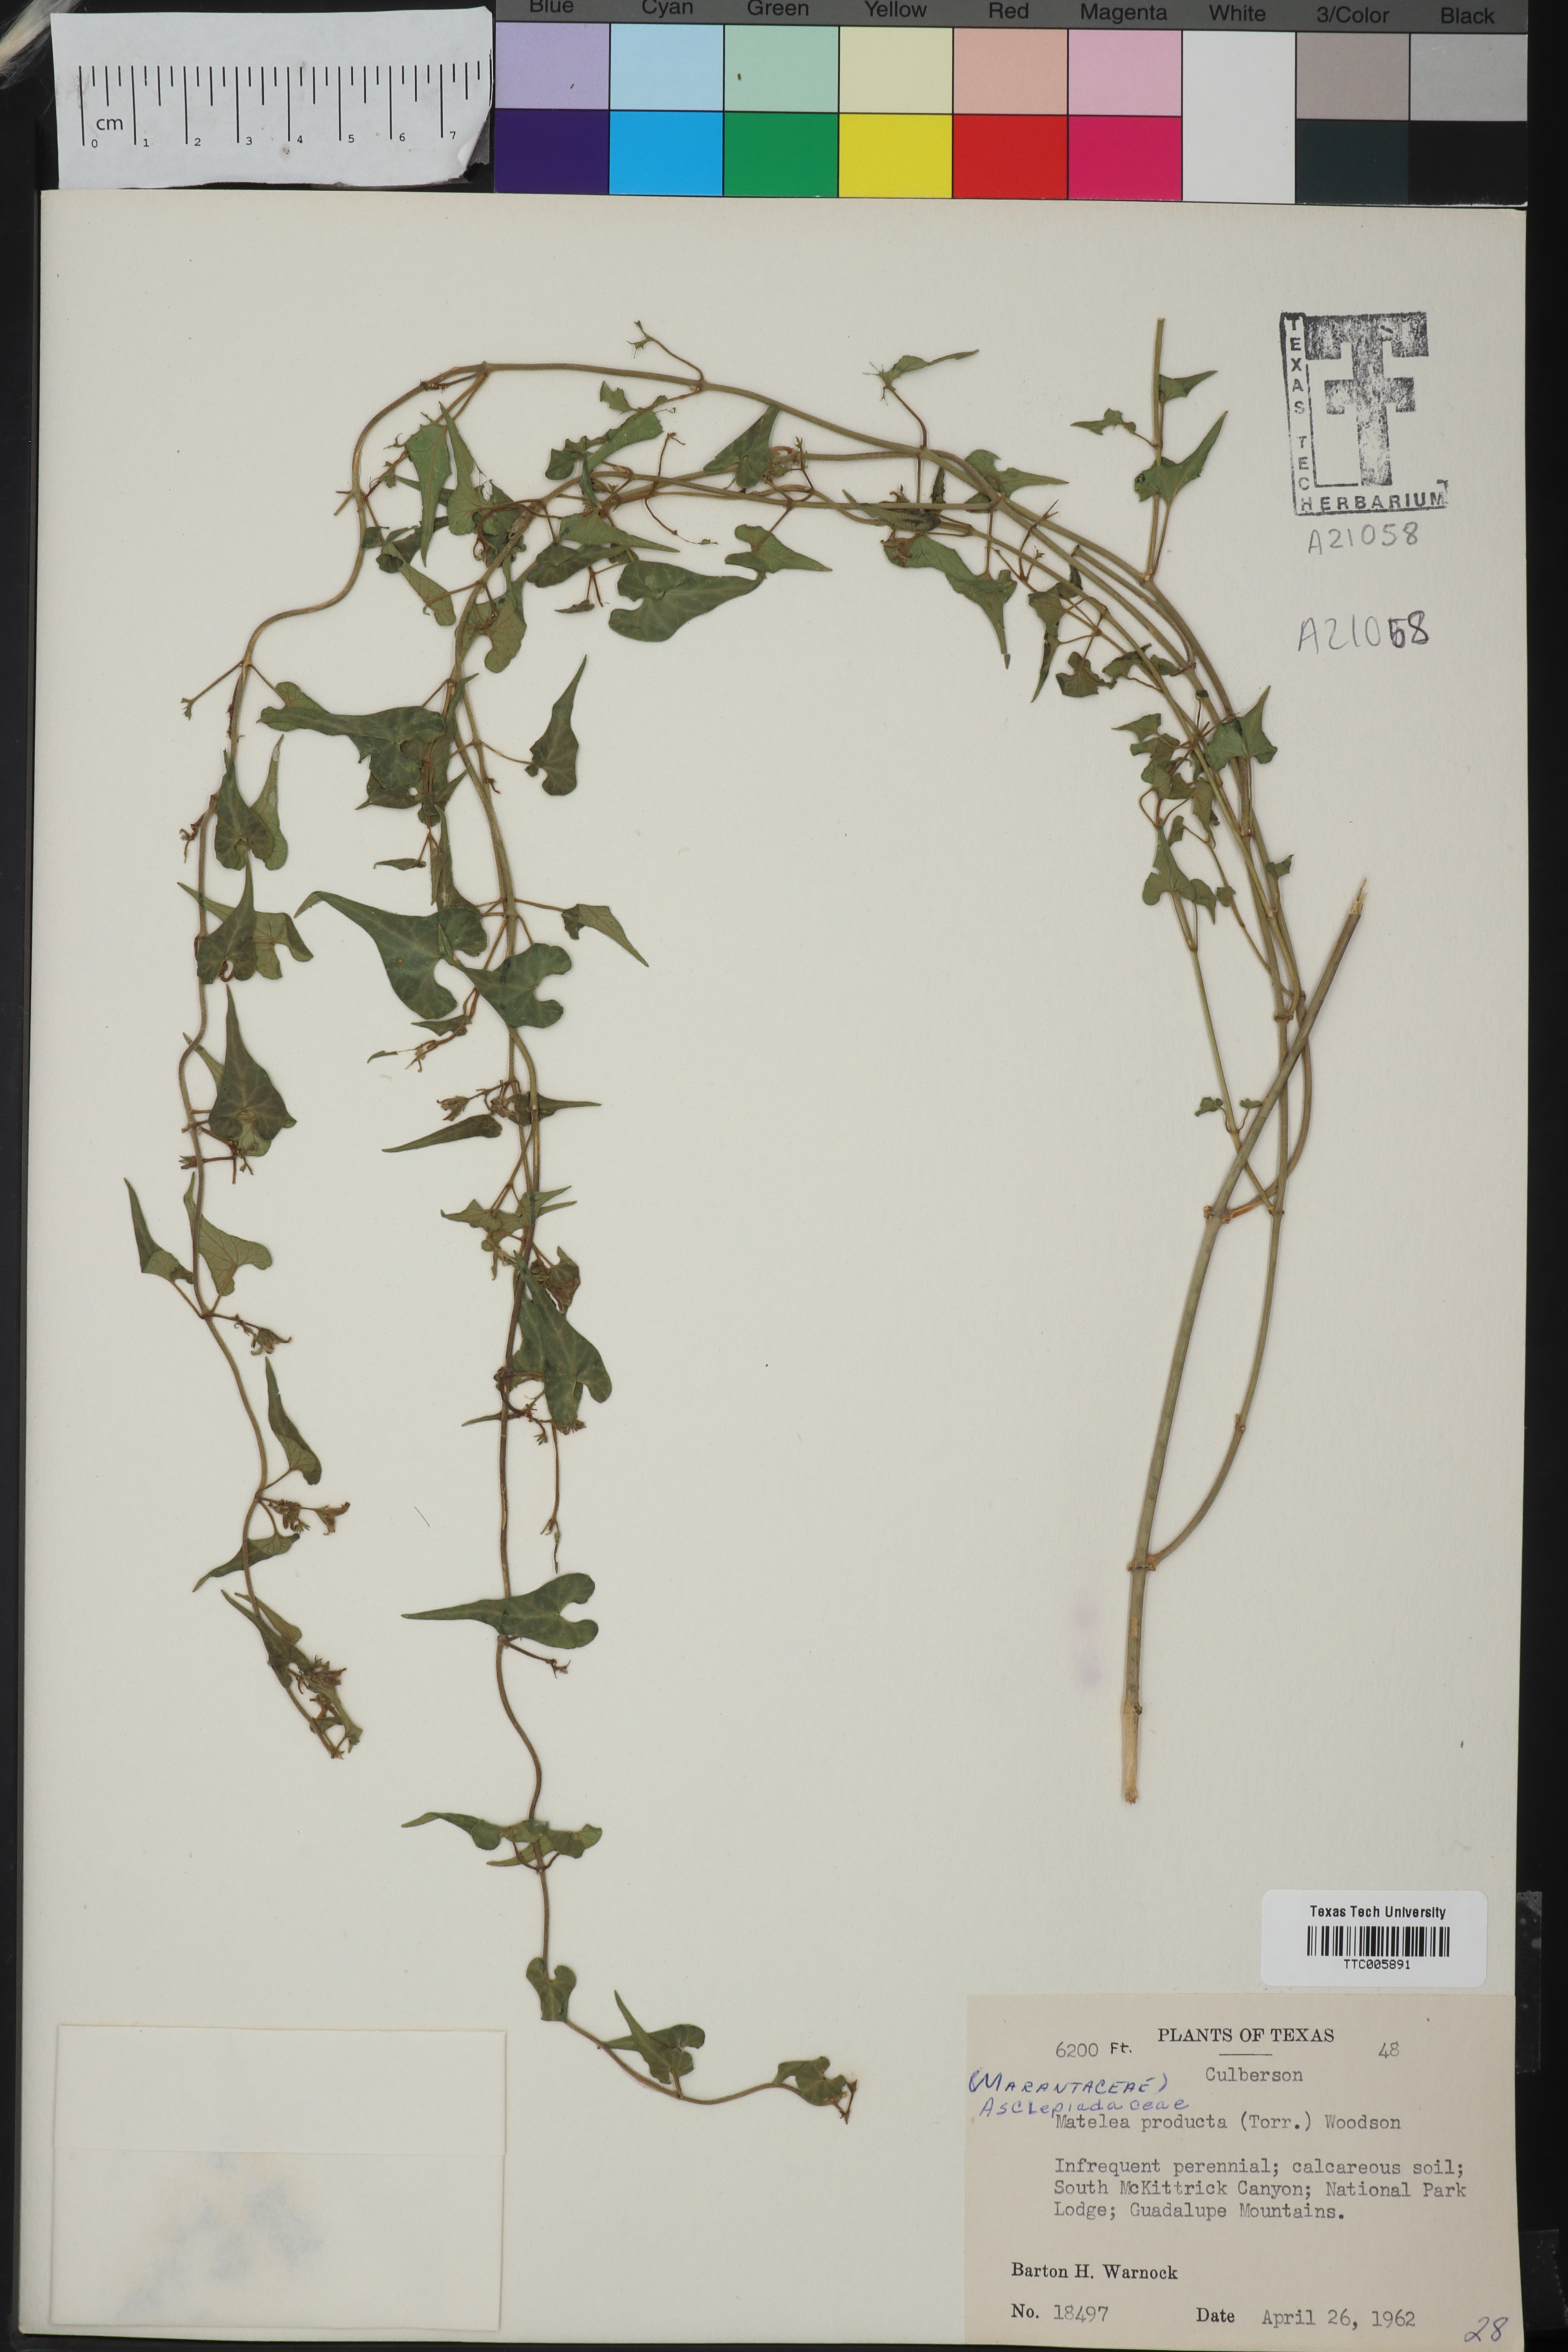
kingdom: Plantae
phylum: Tracheophyta
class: Magnoliopsida
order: Gentianales
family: Apocynaceae
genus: Chthamalia
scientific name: Chthamalia producta
